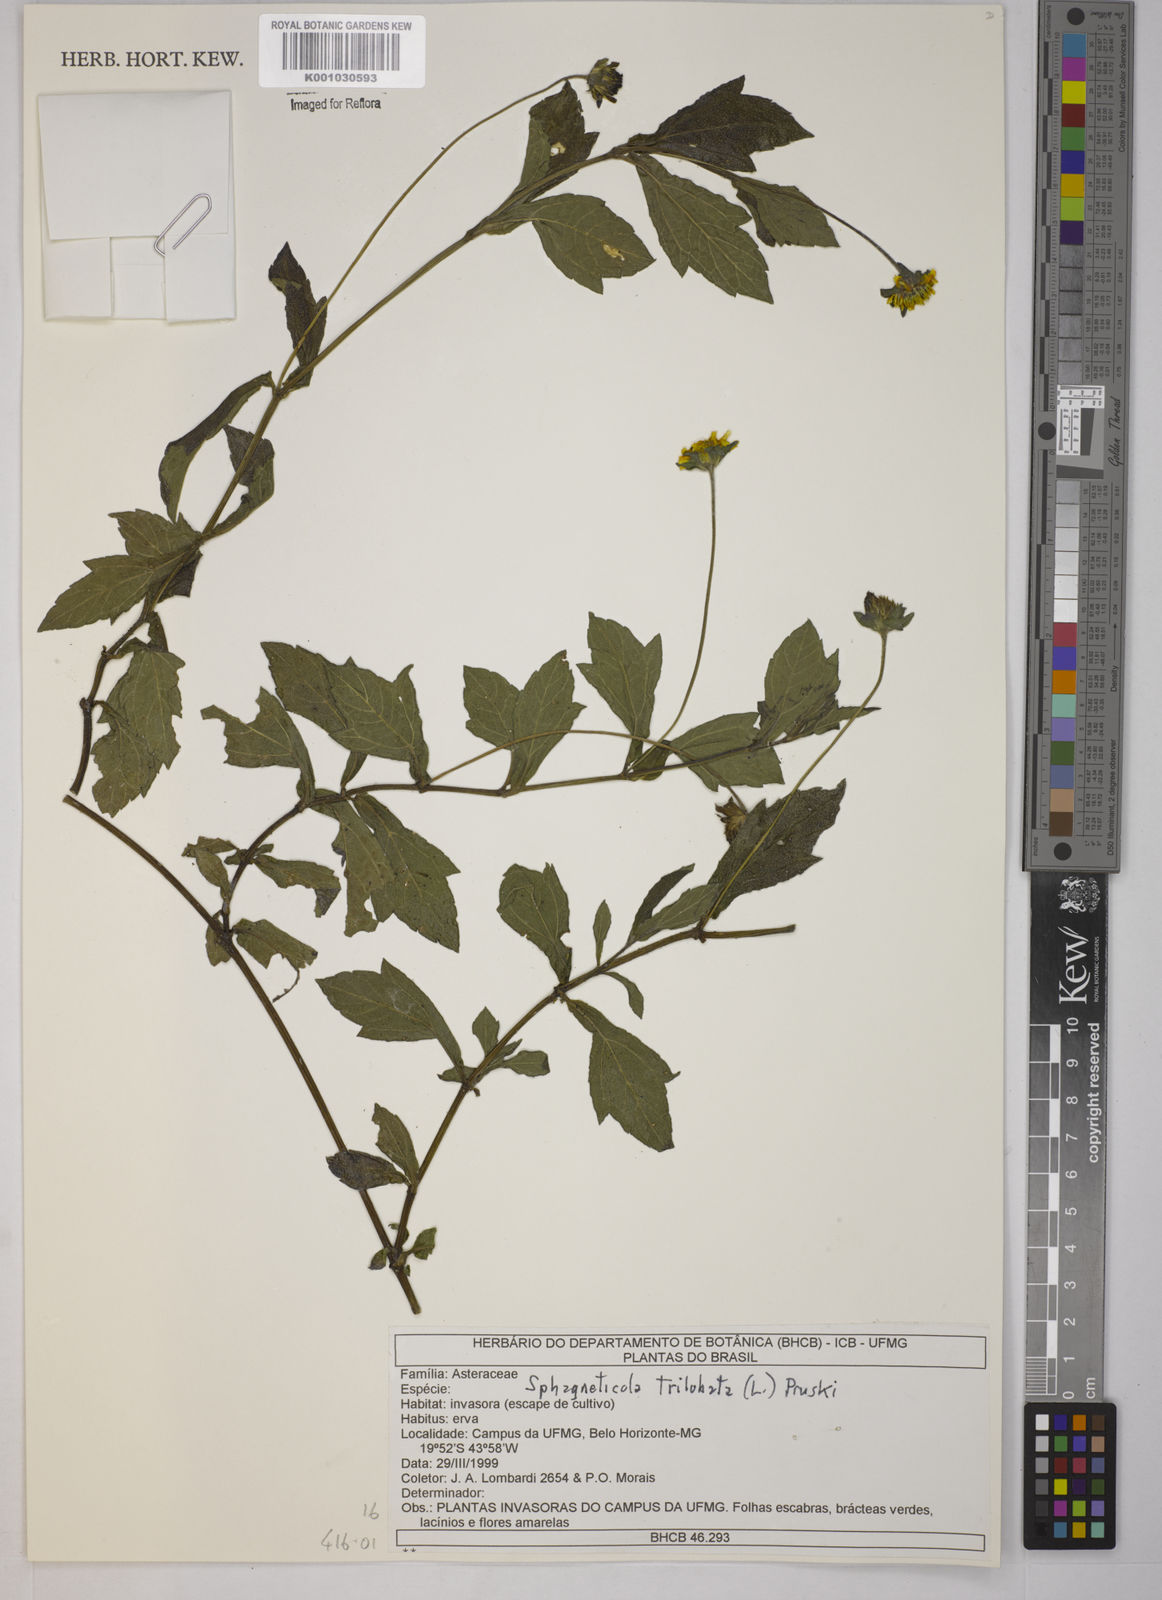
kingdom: Plantae
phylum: Tracheophyta
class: Magnoliopsida
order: Asterales
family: Asteraceae
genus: Sphagneticola
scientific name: Sphagneticola trilobata
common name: Bay biscayne creeping-oxeye
